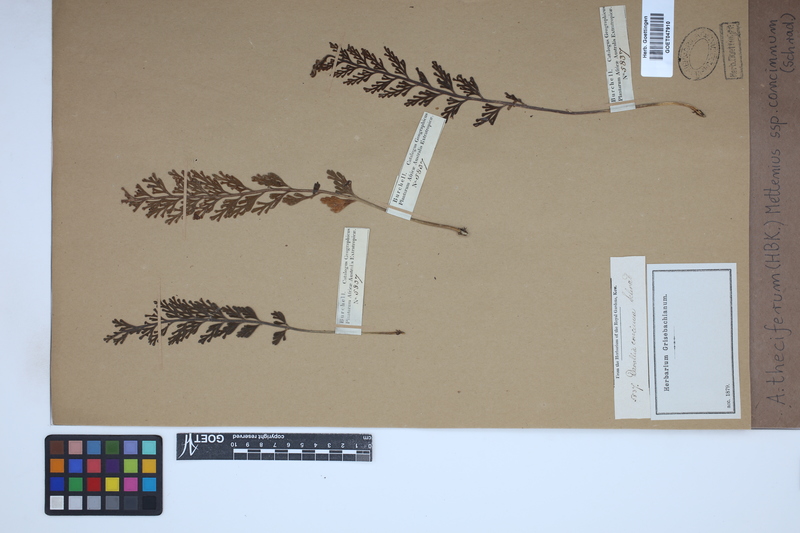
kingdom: Plantae
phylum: Tracheophyta
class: Polypodiopsida
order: Polypodiales
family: Aspleniaceae
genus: Asplenium
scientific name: Asplenium theciferum
